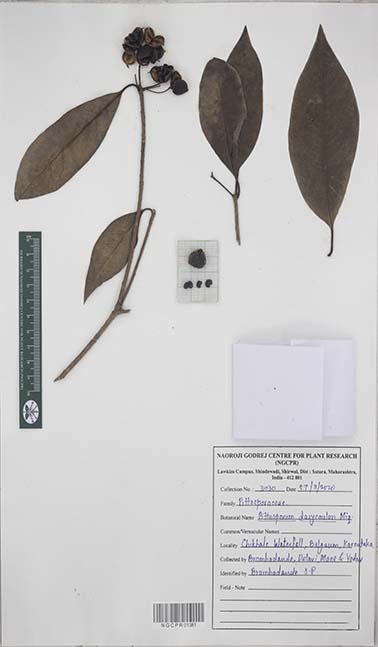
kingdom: Plantae
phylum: Tracheophyta
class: Magnoliopsida
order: Apiales
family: Pittosporaceae
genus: Pittosporum
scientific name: Pittosporum dasycaulon
